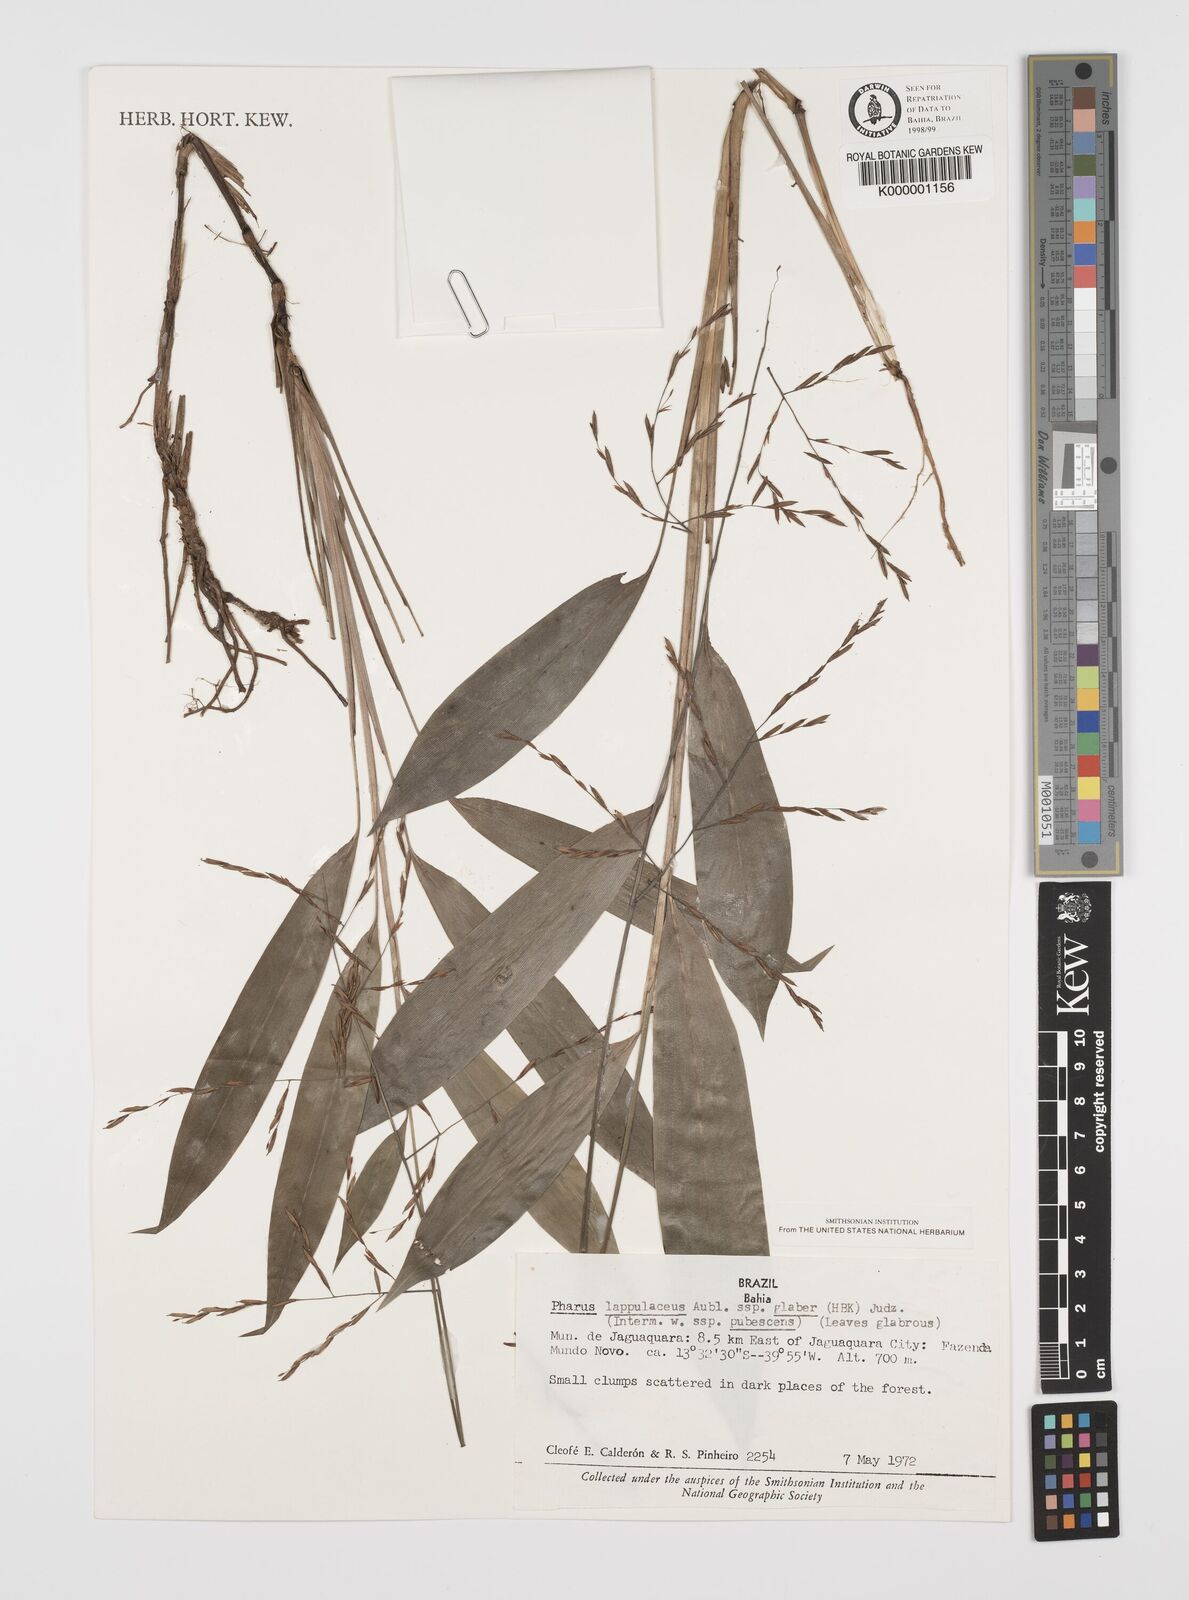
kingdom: Plantae
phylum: Tracheophyta
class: Liliopsida
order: Poales
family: Poaceae
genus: Pharus
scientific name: Pharus lappulaceus
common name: Creeping leafstalk grass
